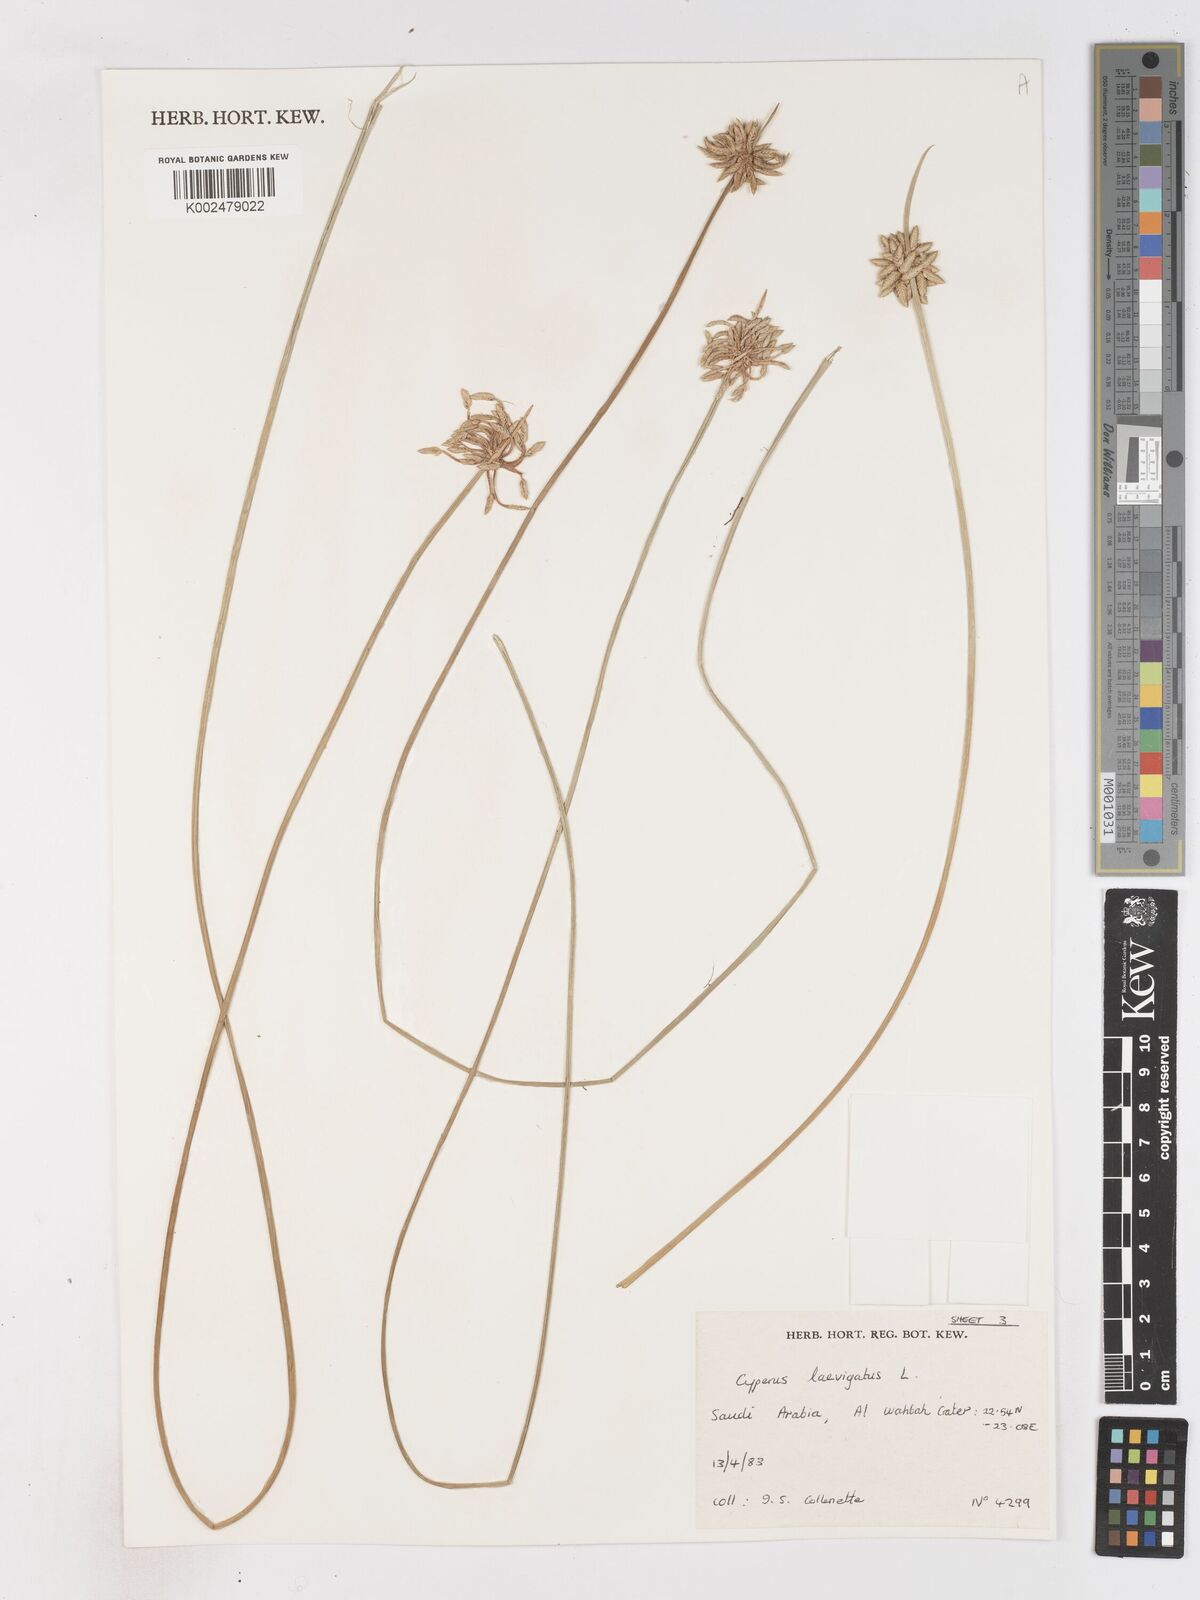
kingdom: Plantae
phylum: Tracheophyta
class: Liliopsida
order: Poales
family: Cyperaceae
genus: Cyperus
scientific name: Cyperus laevigatus
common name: Smooth flat sedge
